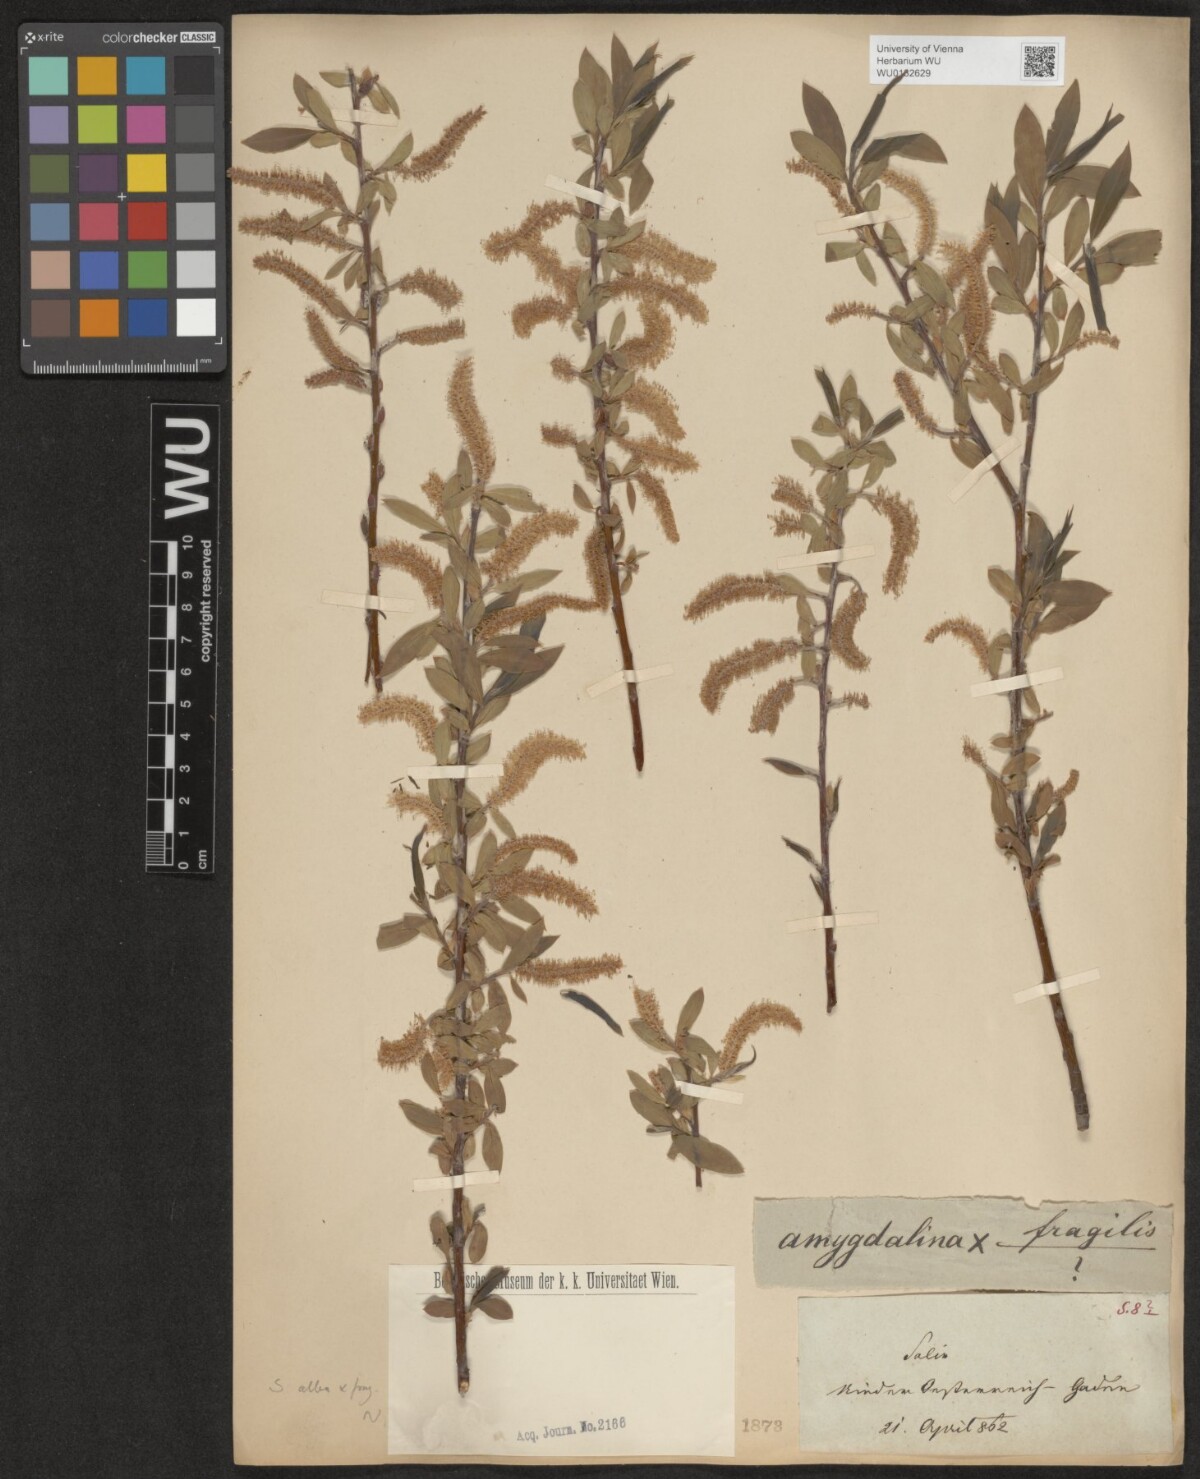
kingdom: Plantae
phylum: Tracheophyta
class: Magnoliopsida
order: Malpighiales
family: Salicaceae
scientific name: Salicaceae
